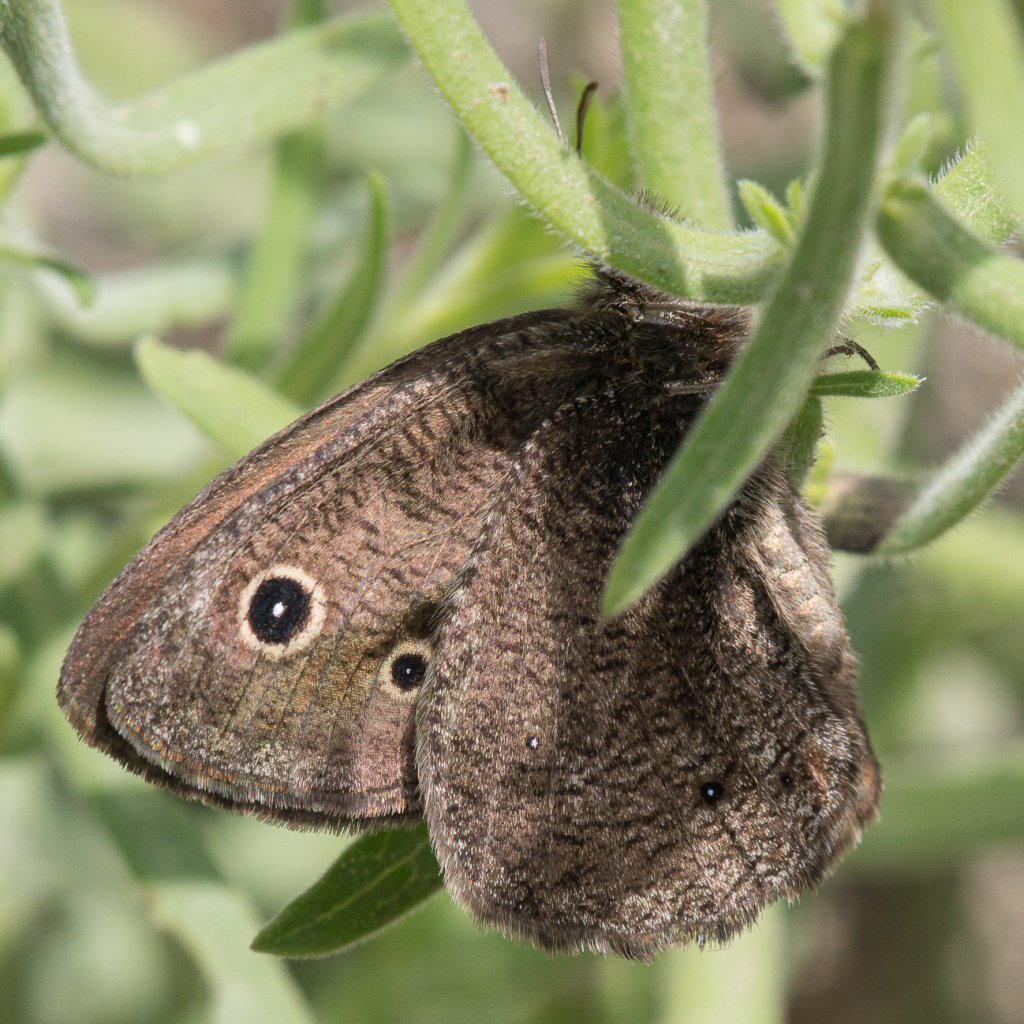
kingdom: Animalia
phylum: Arthropoda
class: Insecta
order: Lepidoptera
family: Nymphalidae
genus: Cercyonis
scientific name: Cercyonis oetus
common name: Small Wood-Nymph
